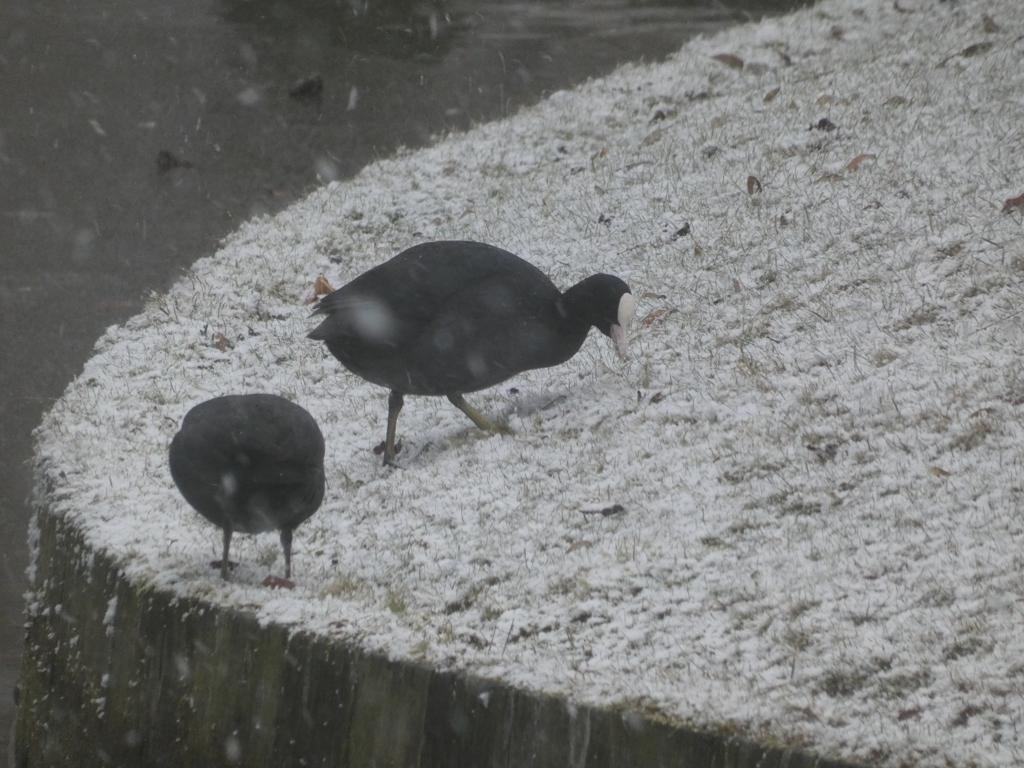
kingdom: Animalia
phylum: Chordata
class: Aves
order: Gruiformes
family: Rallidae
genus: Fulica
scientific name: Fulica atra
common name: Blishøne
